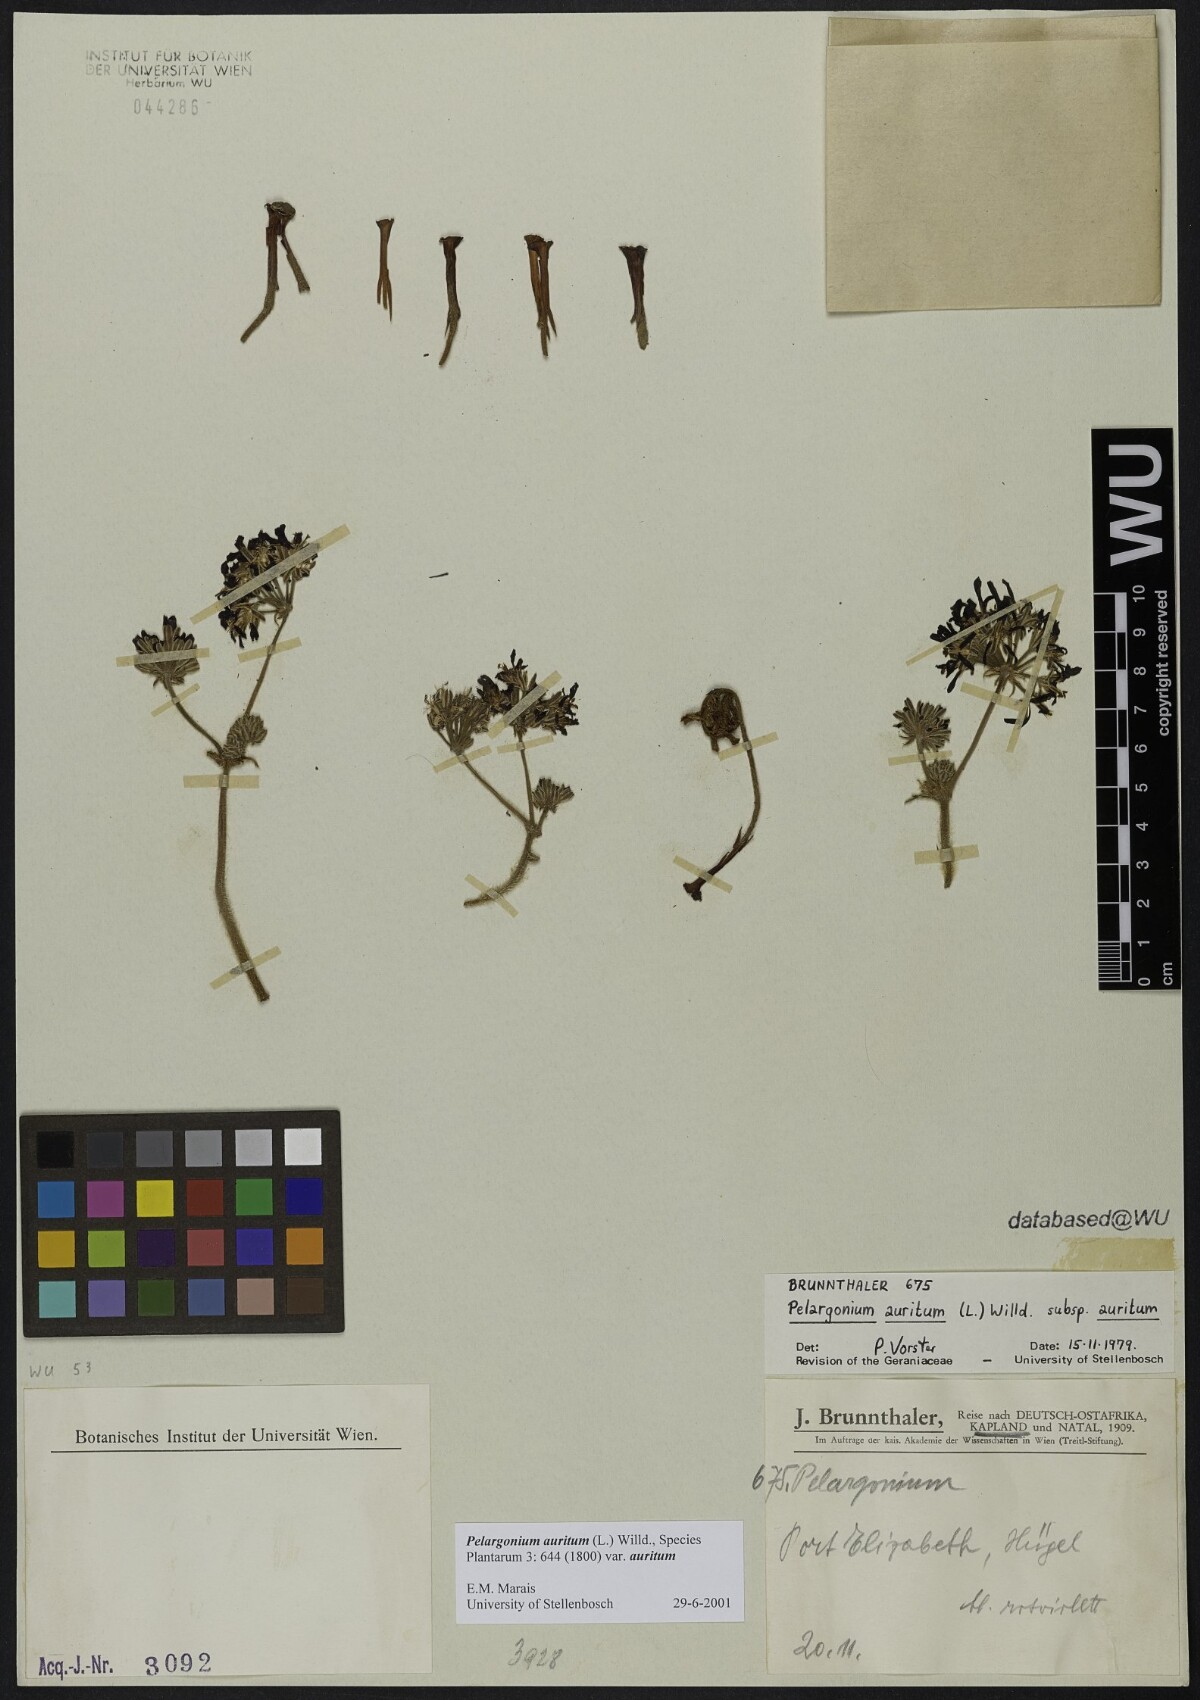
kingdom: Plantae
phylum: Tracheophyta
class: Magnoliopsida
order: Geraniales
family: Geraniaceae
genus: Pelargonium
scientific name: Pelargonium auritum
